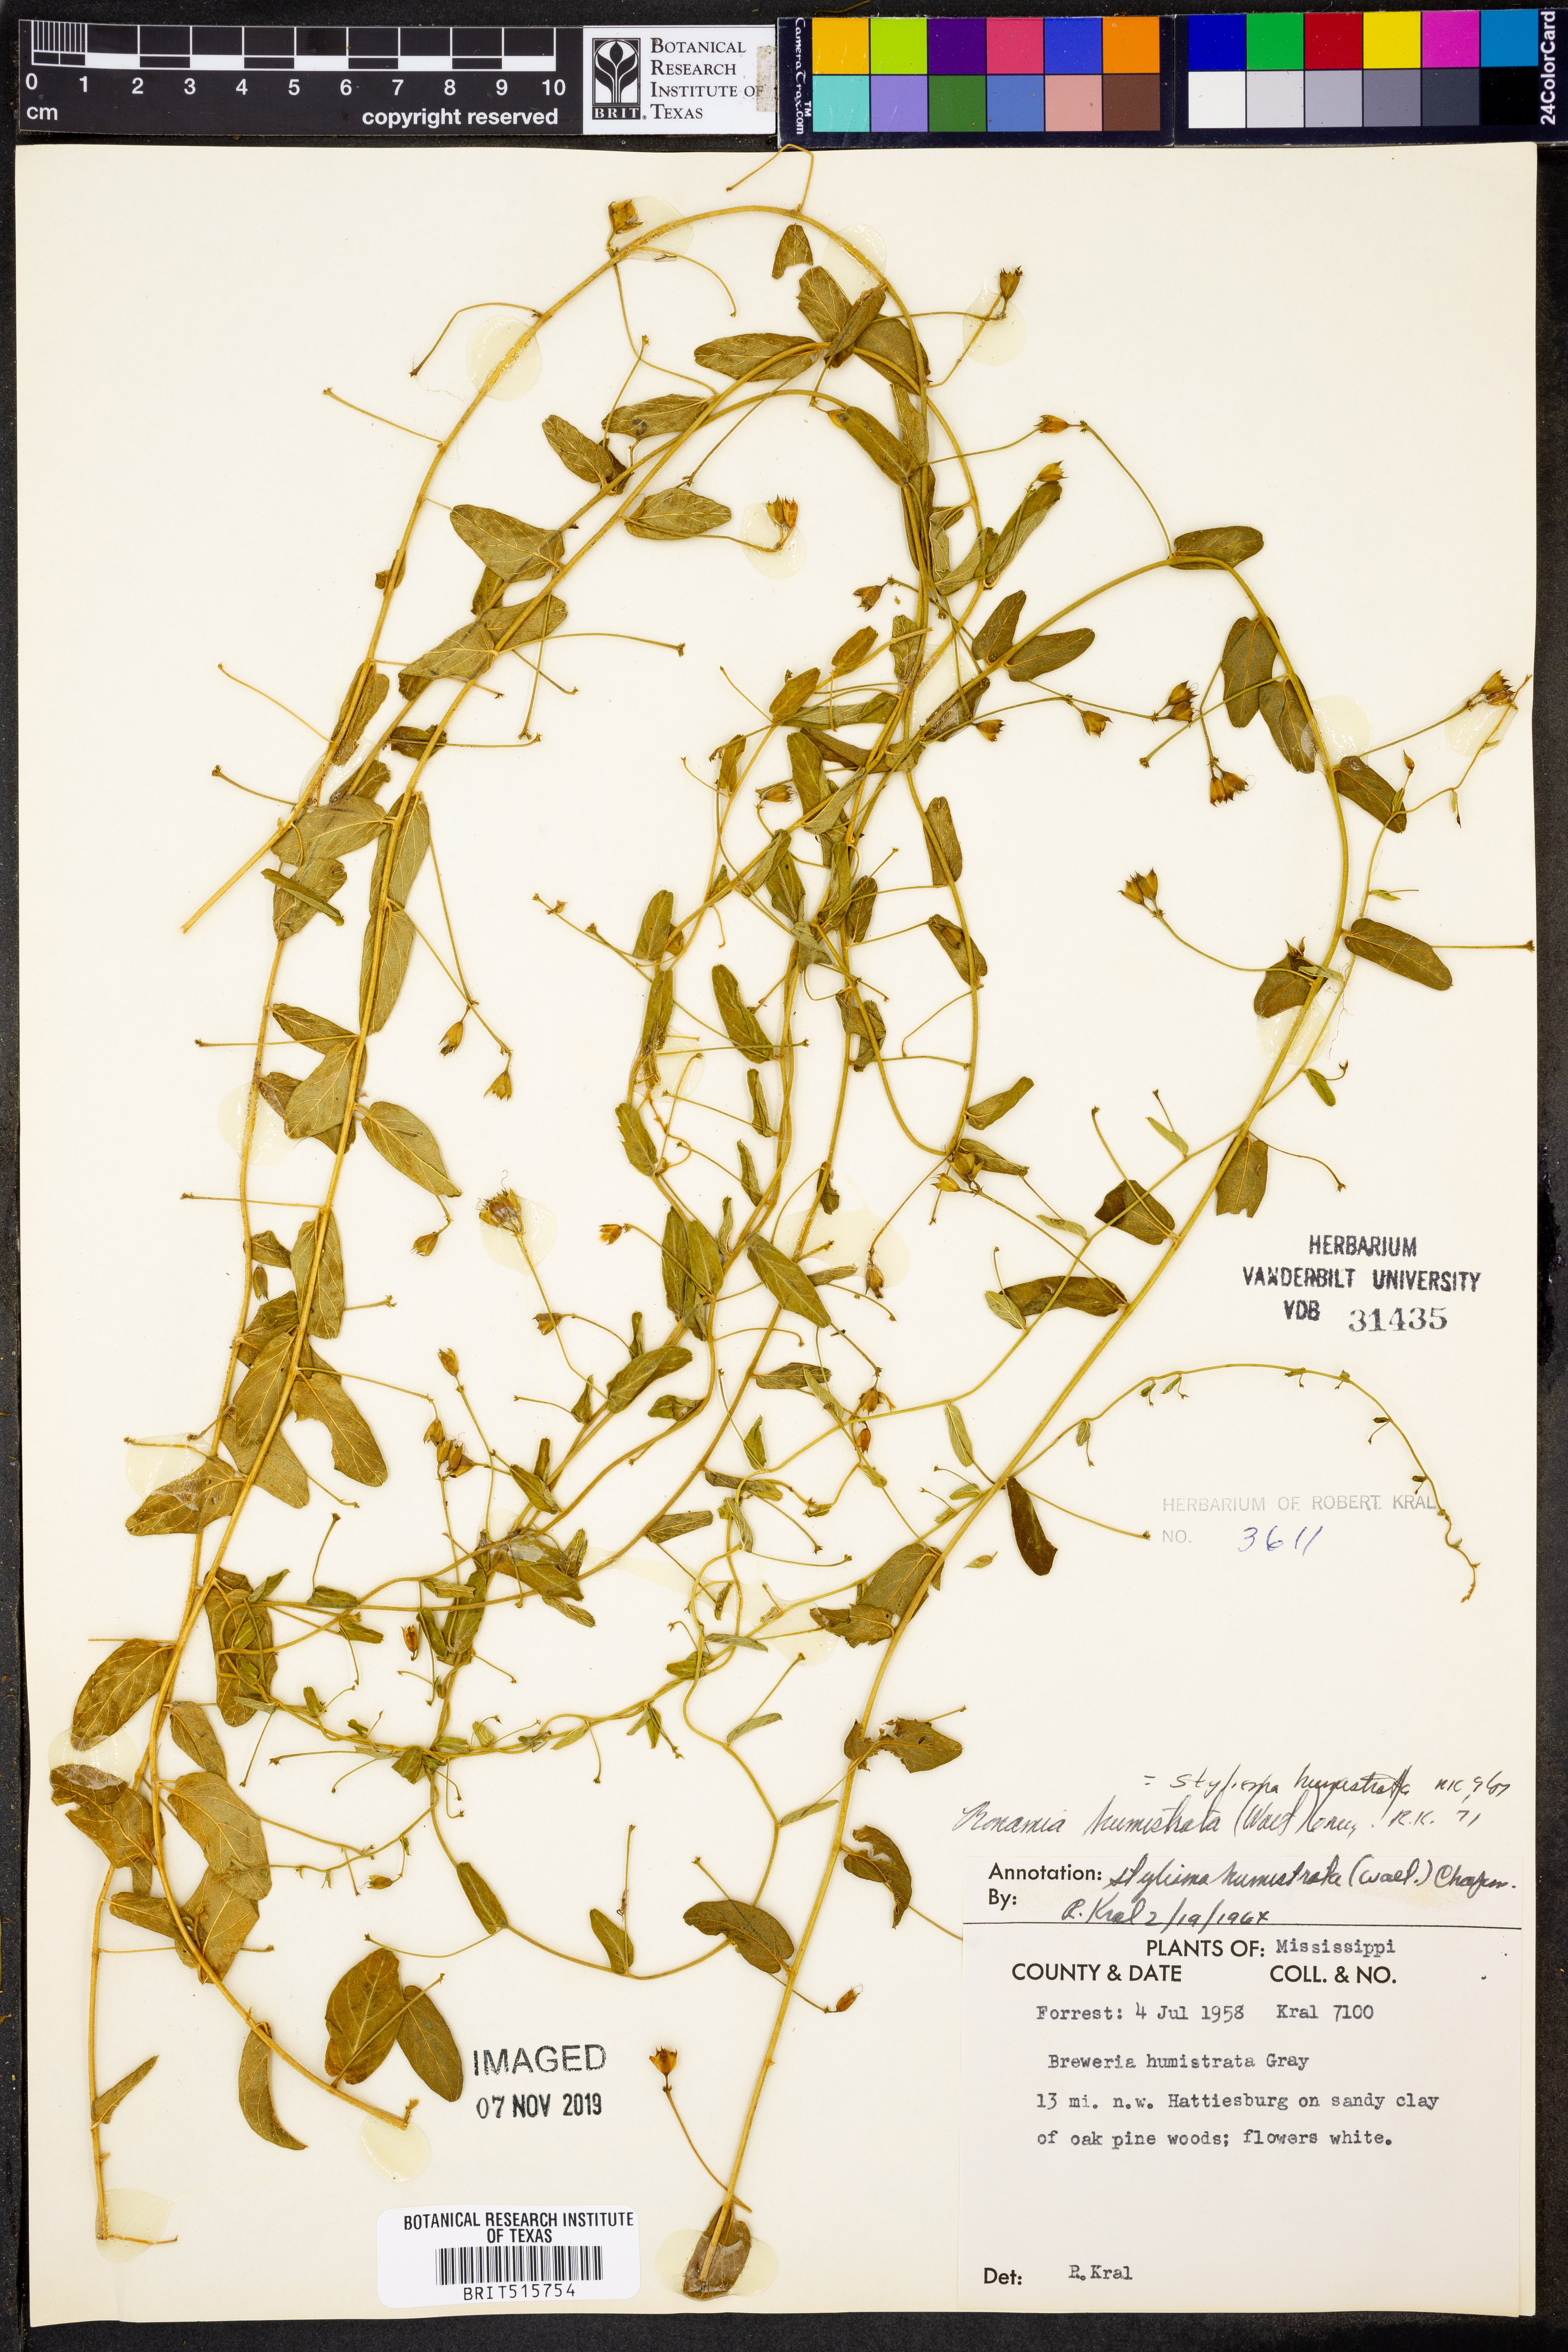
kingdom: Plantae
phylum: Tracheophyta
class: Magnoliopsida
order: Solanales
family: Convolvulaceae
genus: Stylisma
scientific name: Stylisma humistrata
